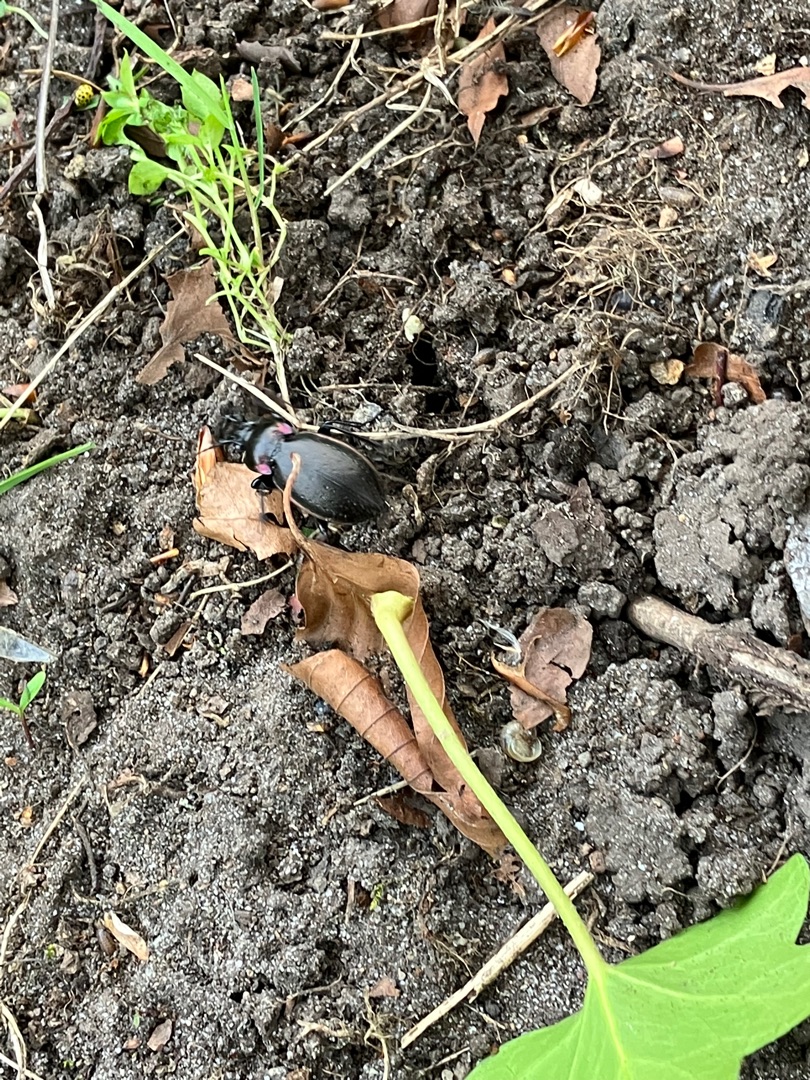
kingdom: Animalia
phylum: Arthropoda
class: Insecta
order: Coleoptera
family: Carabidae
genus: Carabus
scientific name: Carabus nemoralis
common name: Kratløber
